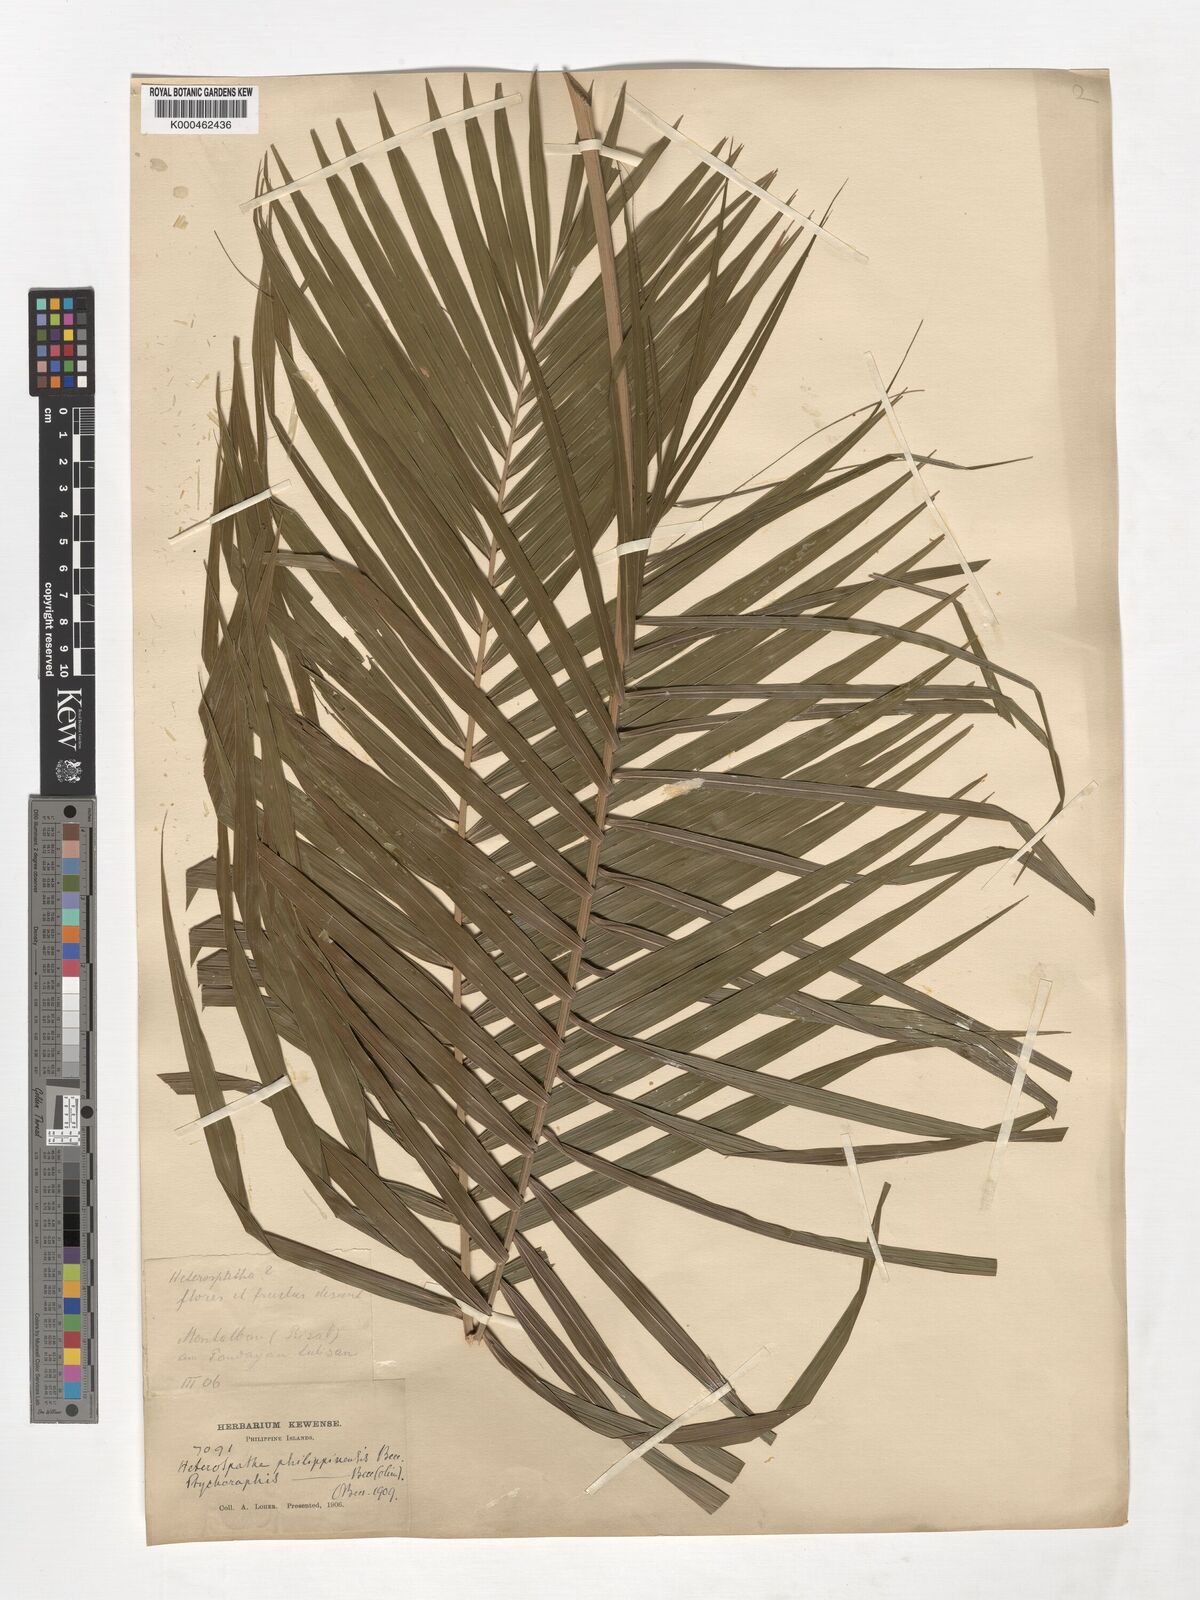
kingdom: Plantae
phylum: Tracheophyta
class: Liliopsida
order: Arecales
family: Arecaceae
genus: Heterospathe
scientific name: Heterospathe philippinensis
